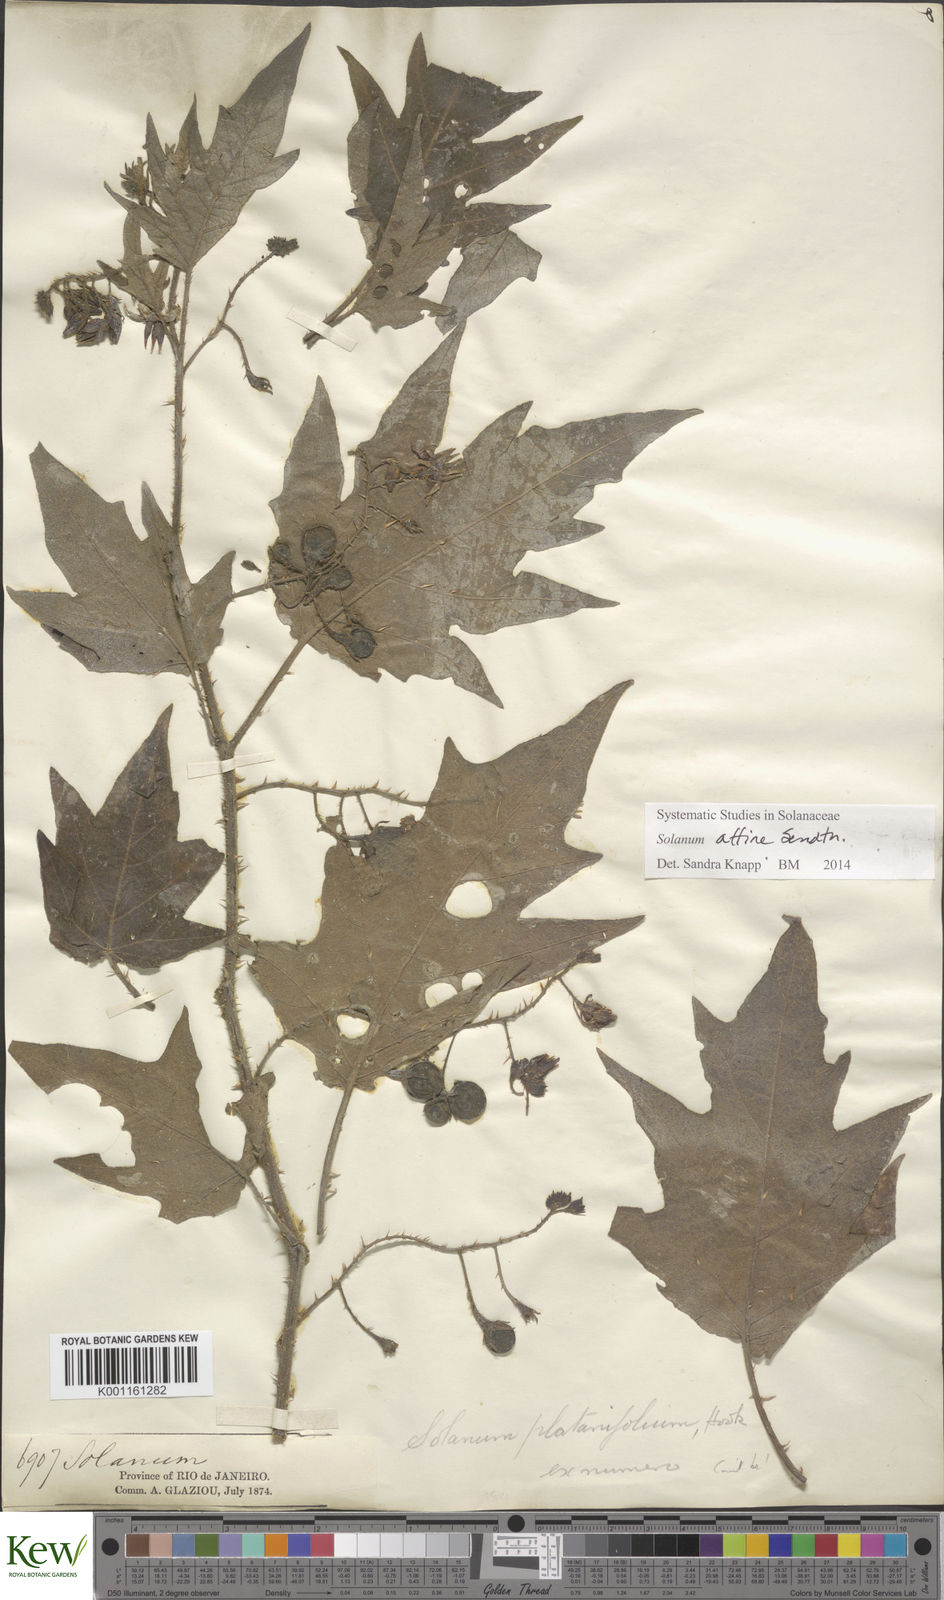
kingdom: Plantae
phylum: Tracheophyta
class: Magnoliopsida
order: Solanales
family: Solanaceae
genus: Solanum
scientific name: Solanum affine
